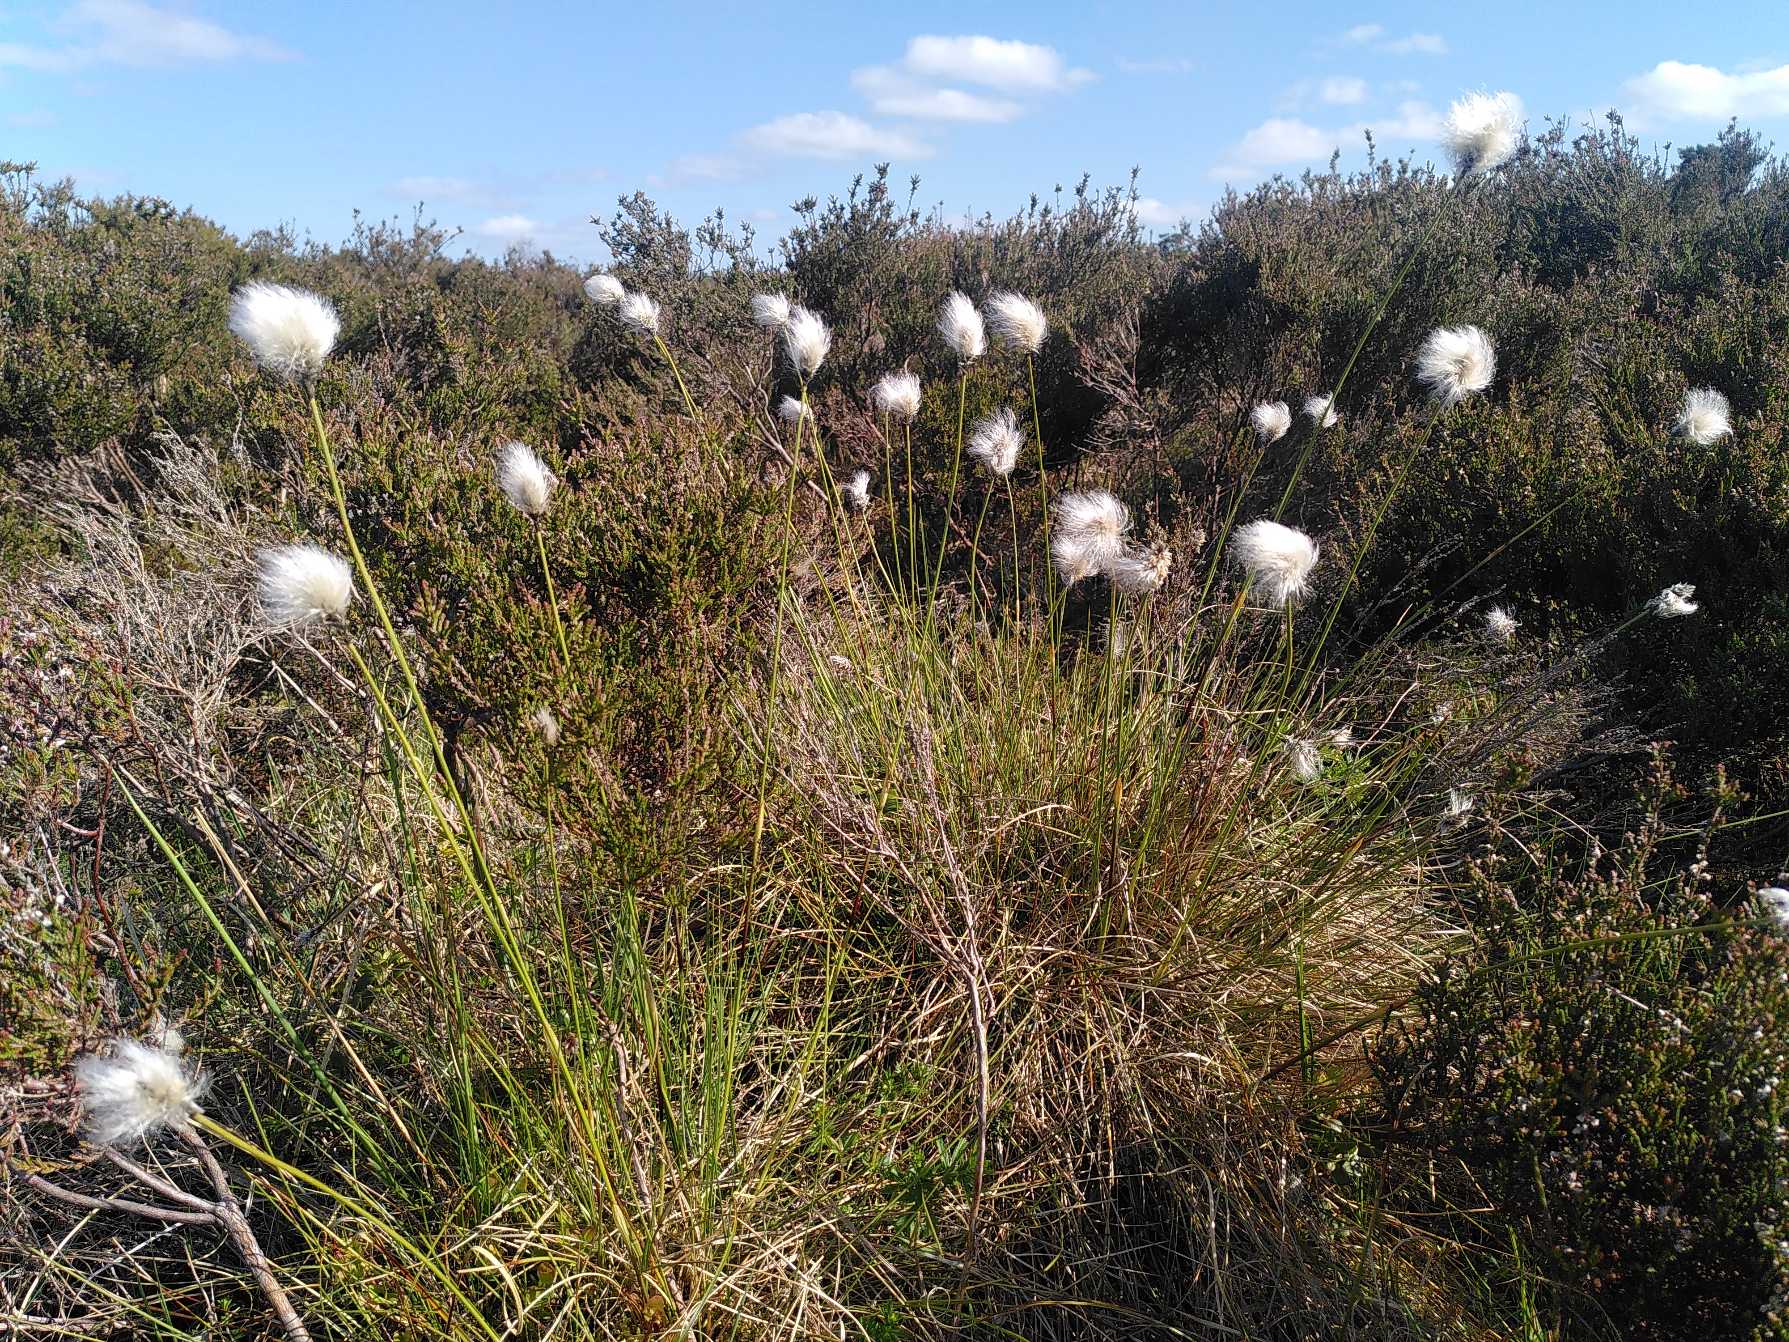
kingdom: Plantae
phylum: Tracheophyta
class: Liliopsida
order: Poales
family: Cyperaceae
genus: Eriophorum
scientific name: Eriophorum vaginatum
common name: Tue-kæruld
